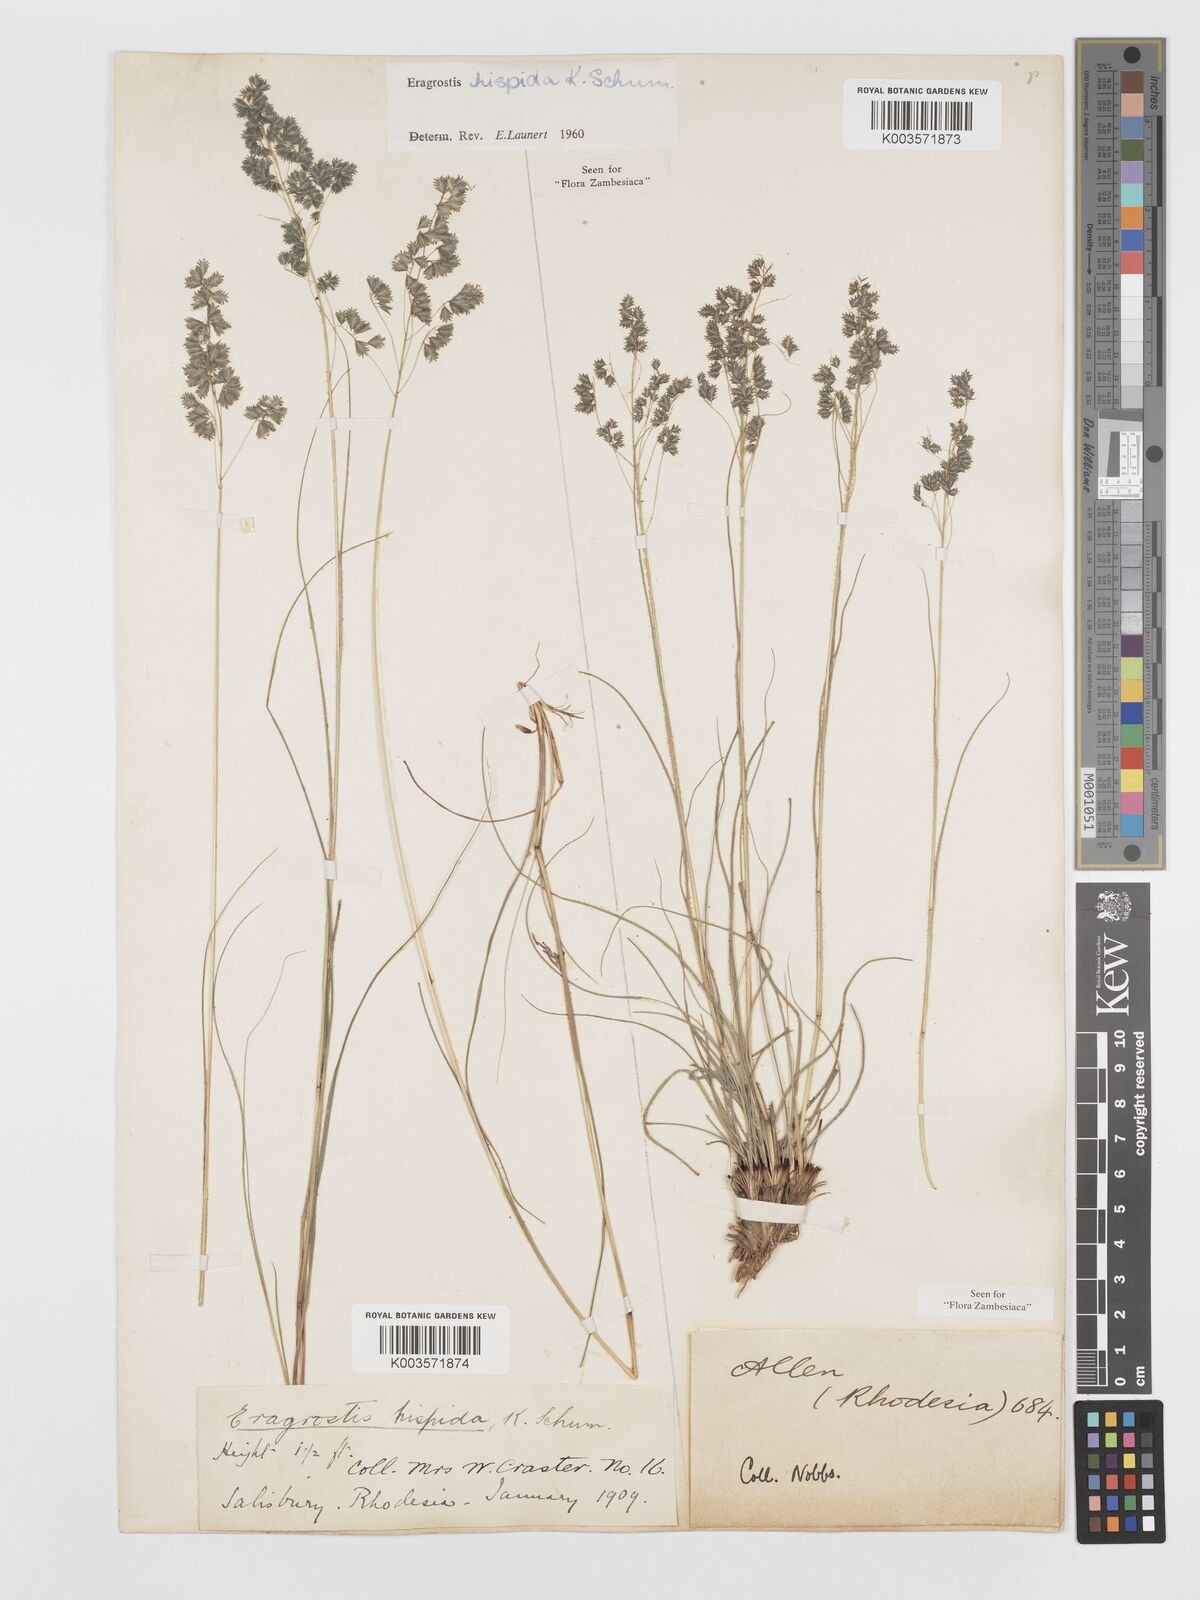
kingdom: Plantae
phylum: Tracheophyta
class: Liliopsida
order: Poales
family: Poaceae
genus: Eragrostis
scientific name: Eragrostis hispida
